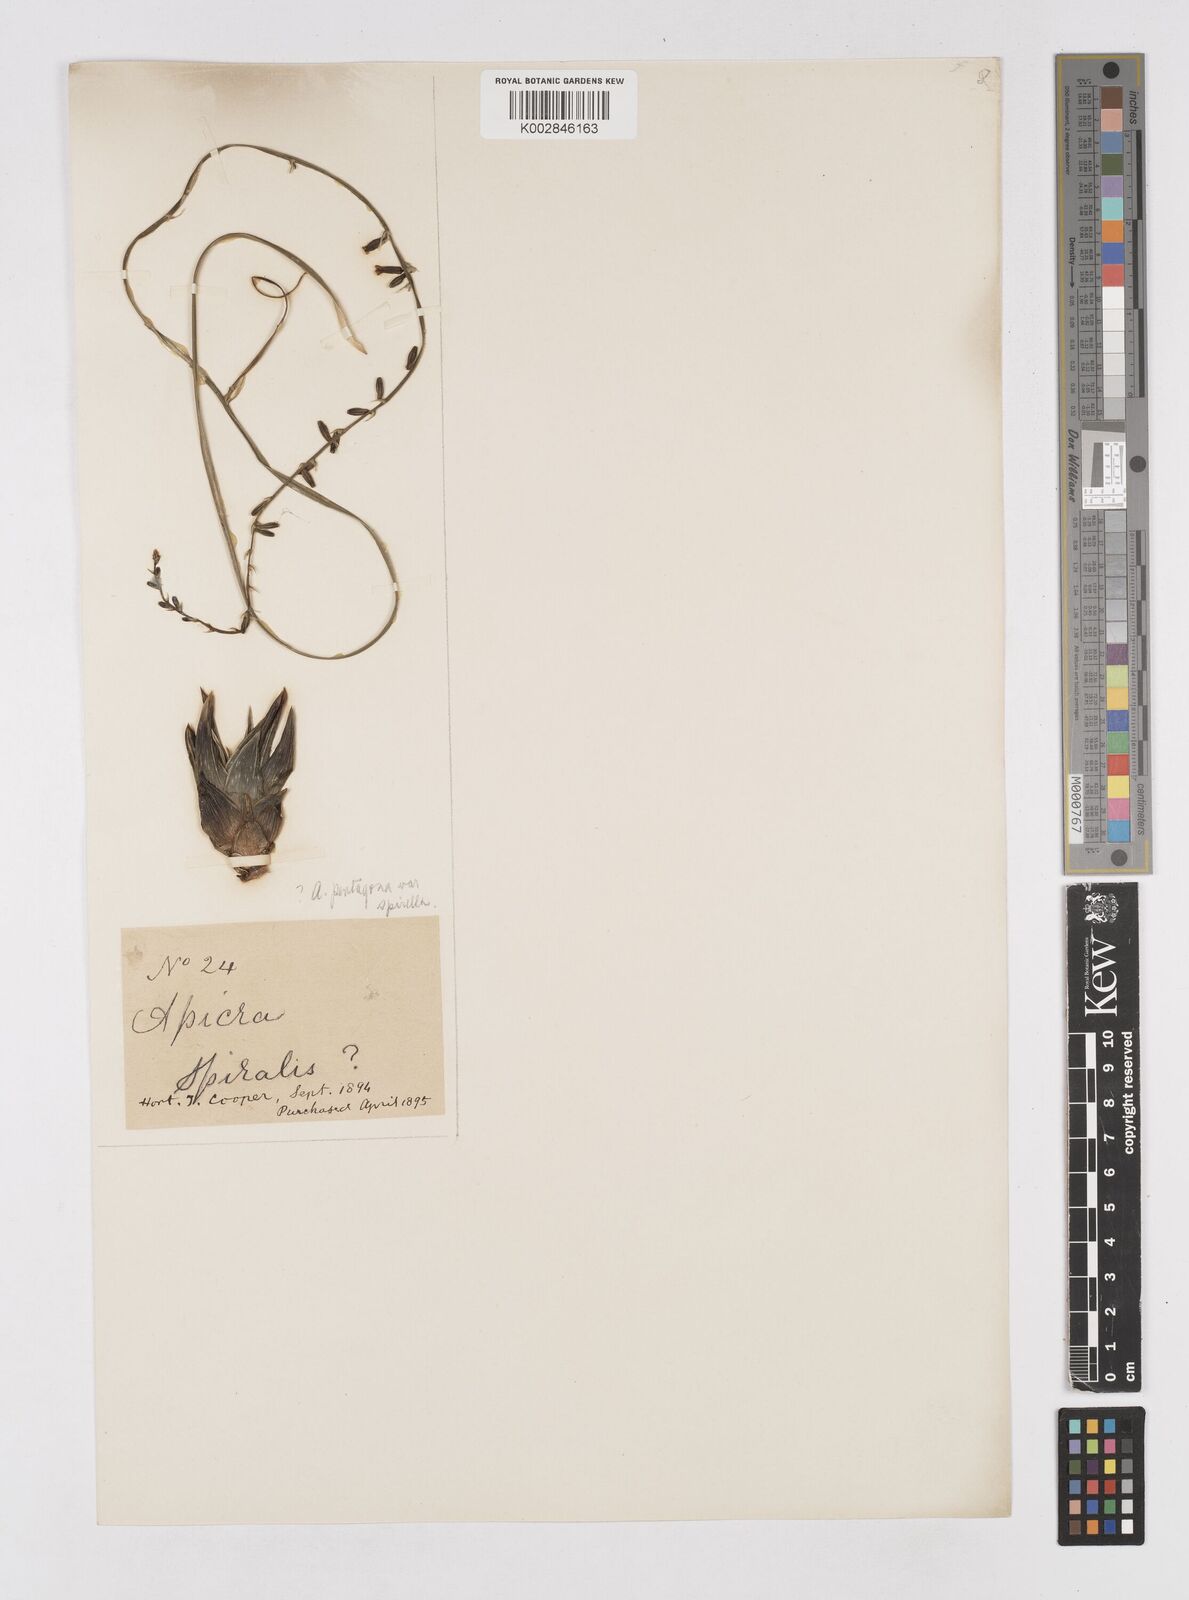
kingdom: Plantae
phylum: Tracheophyta
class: Liliopsida
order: Asparagales
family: Asphodelaceae
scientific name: Asphodelaceae
